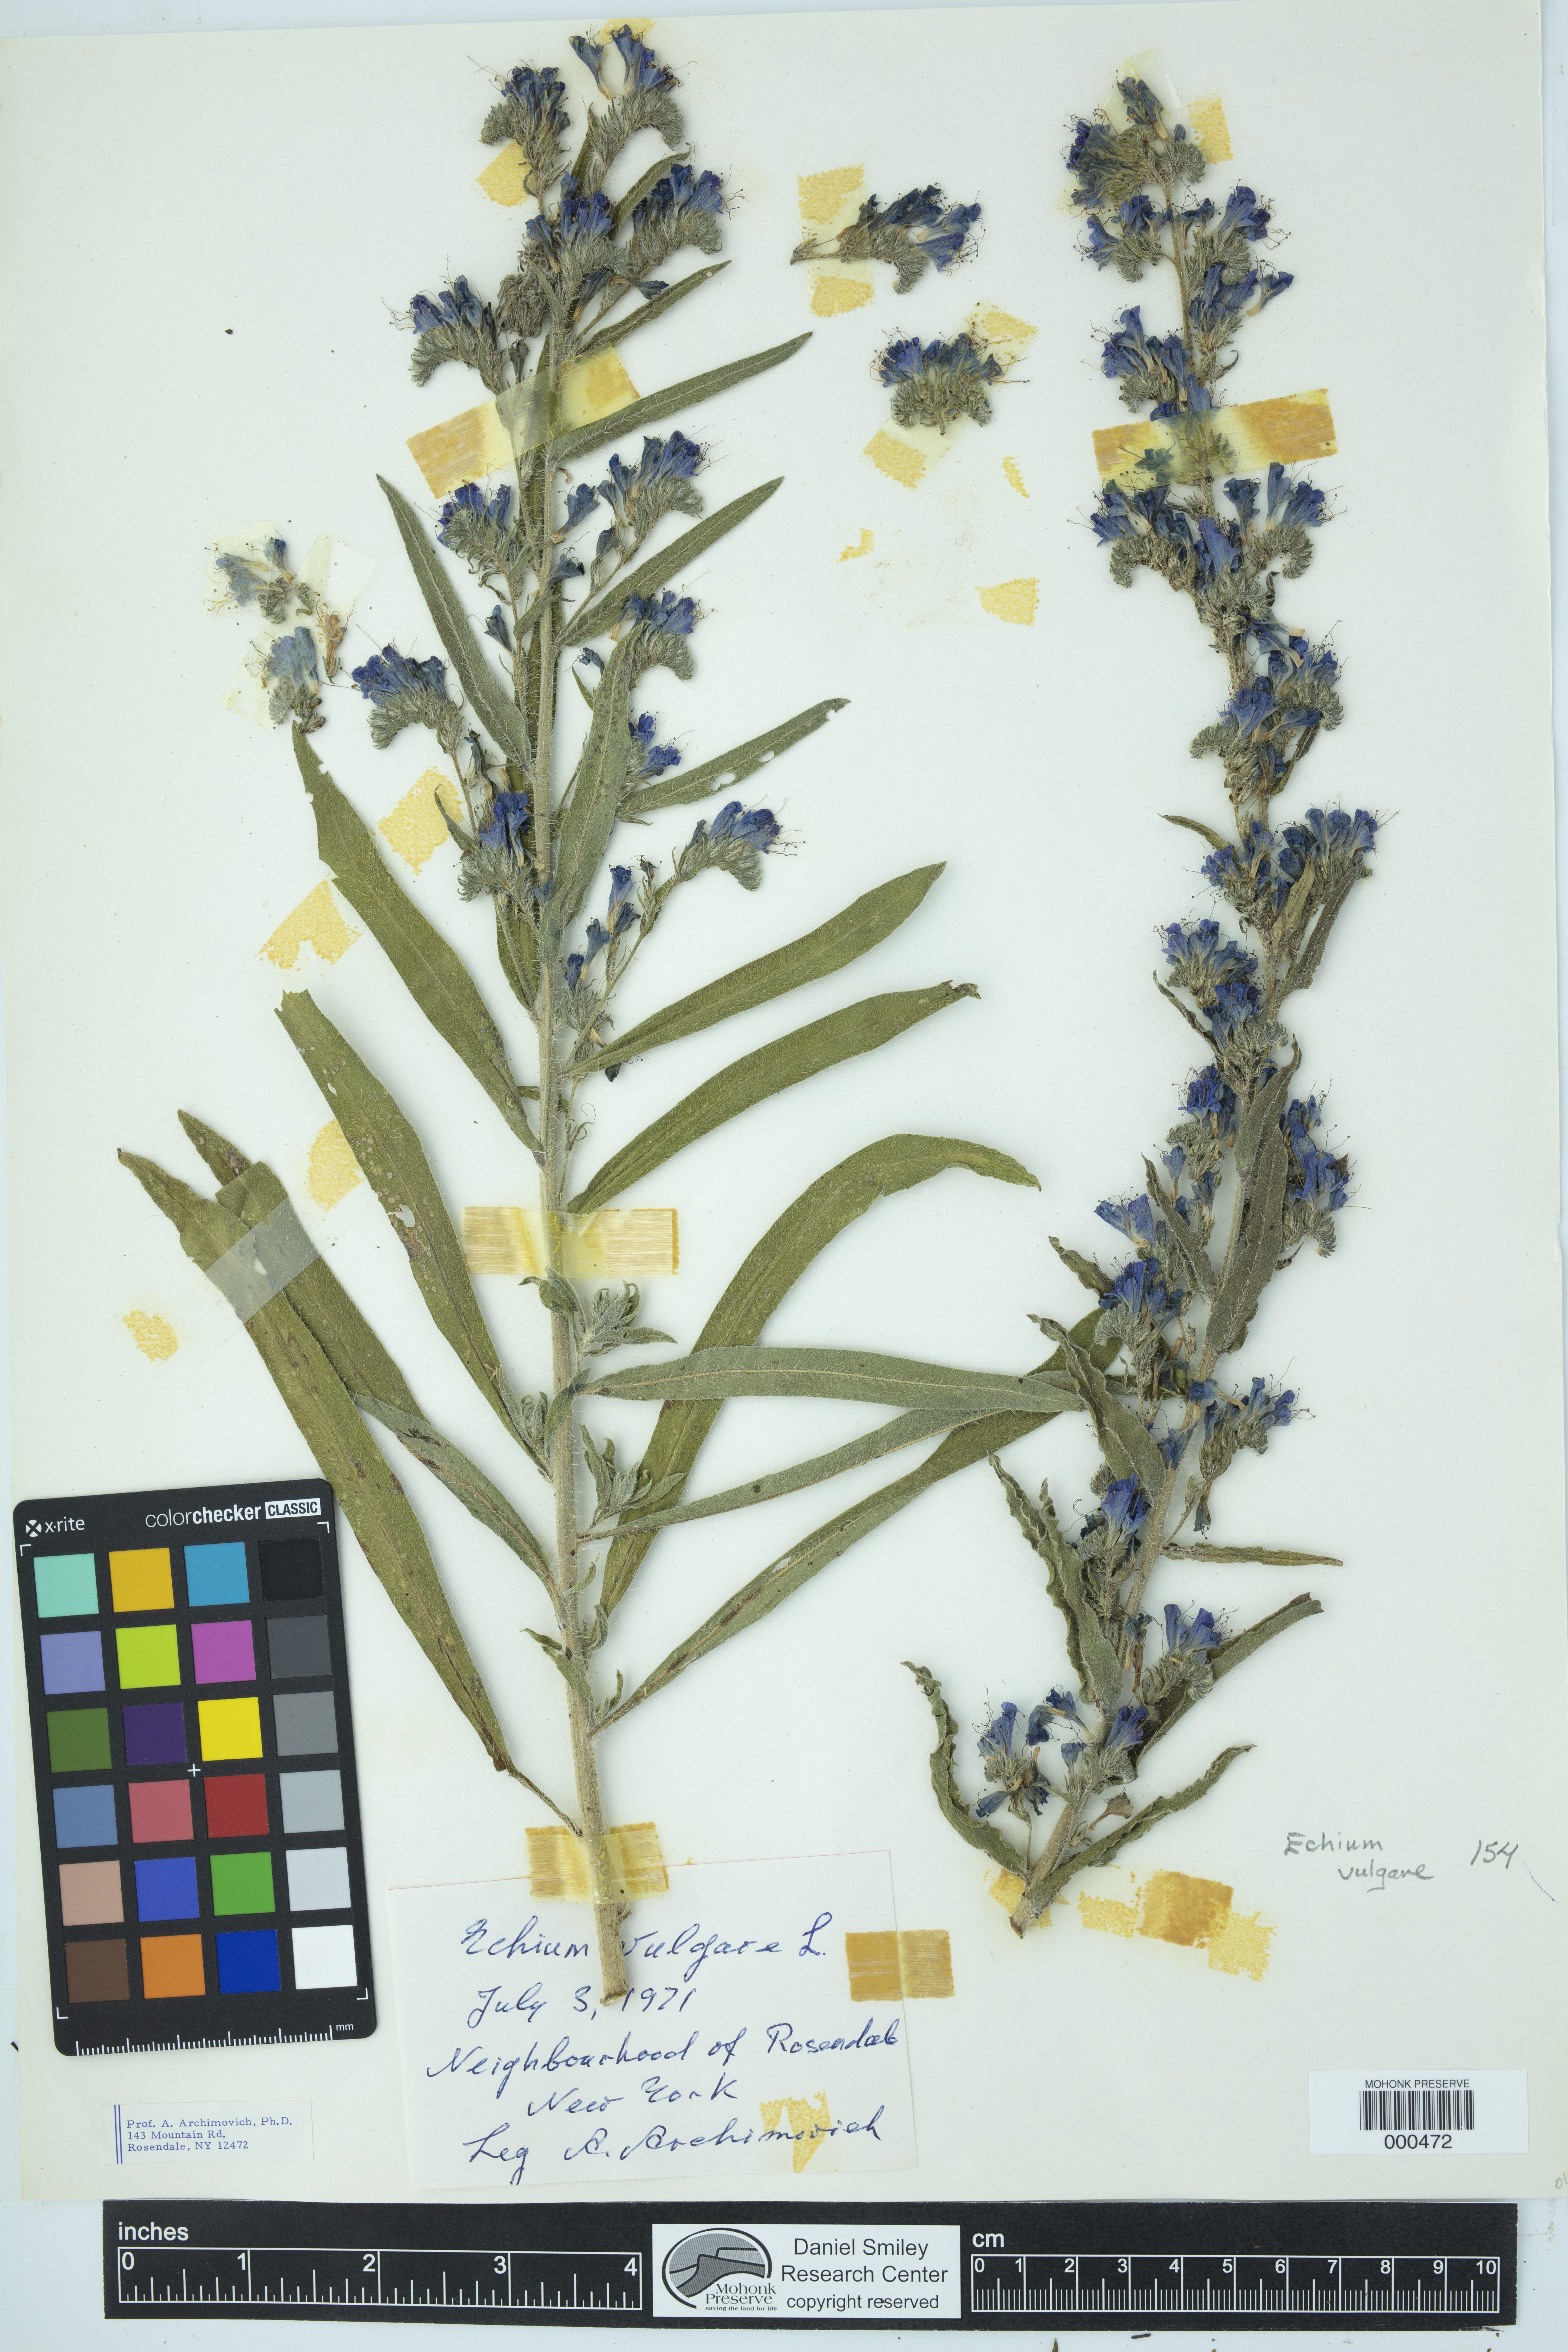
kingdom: Plantae
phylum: Tracheophyta
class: Magnoliopsida
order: Boraginales
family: Boraginaceae
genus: Echium
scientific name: Echium vulgare
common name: Common viper's bugloss
